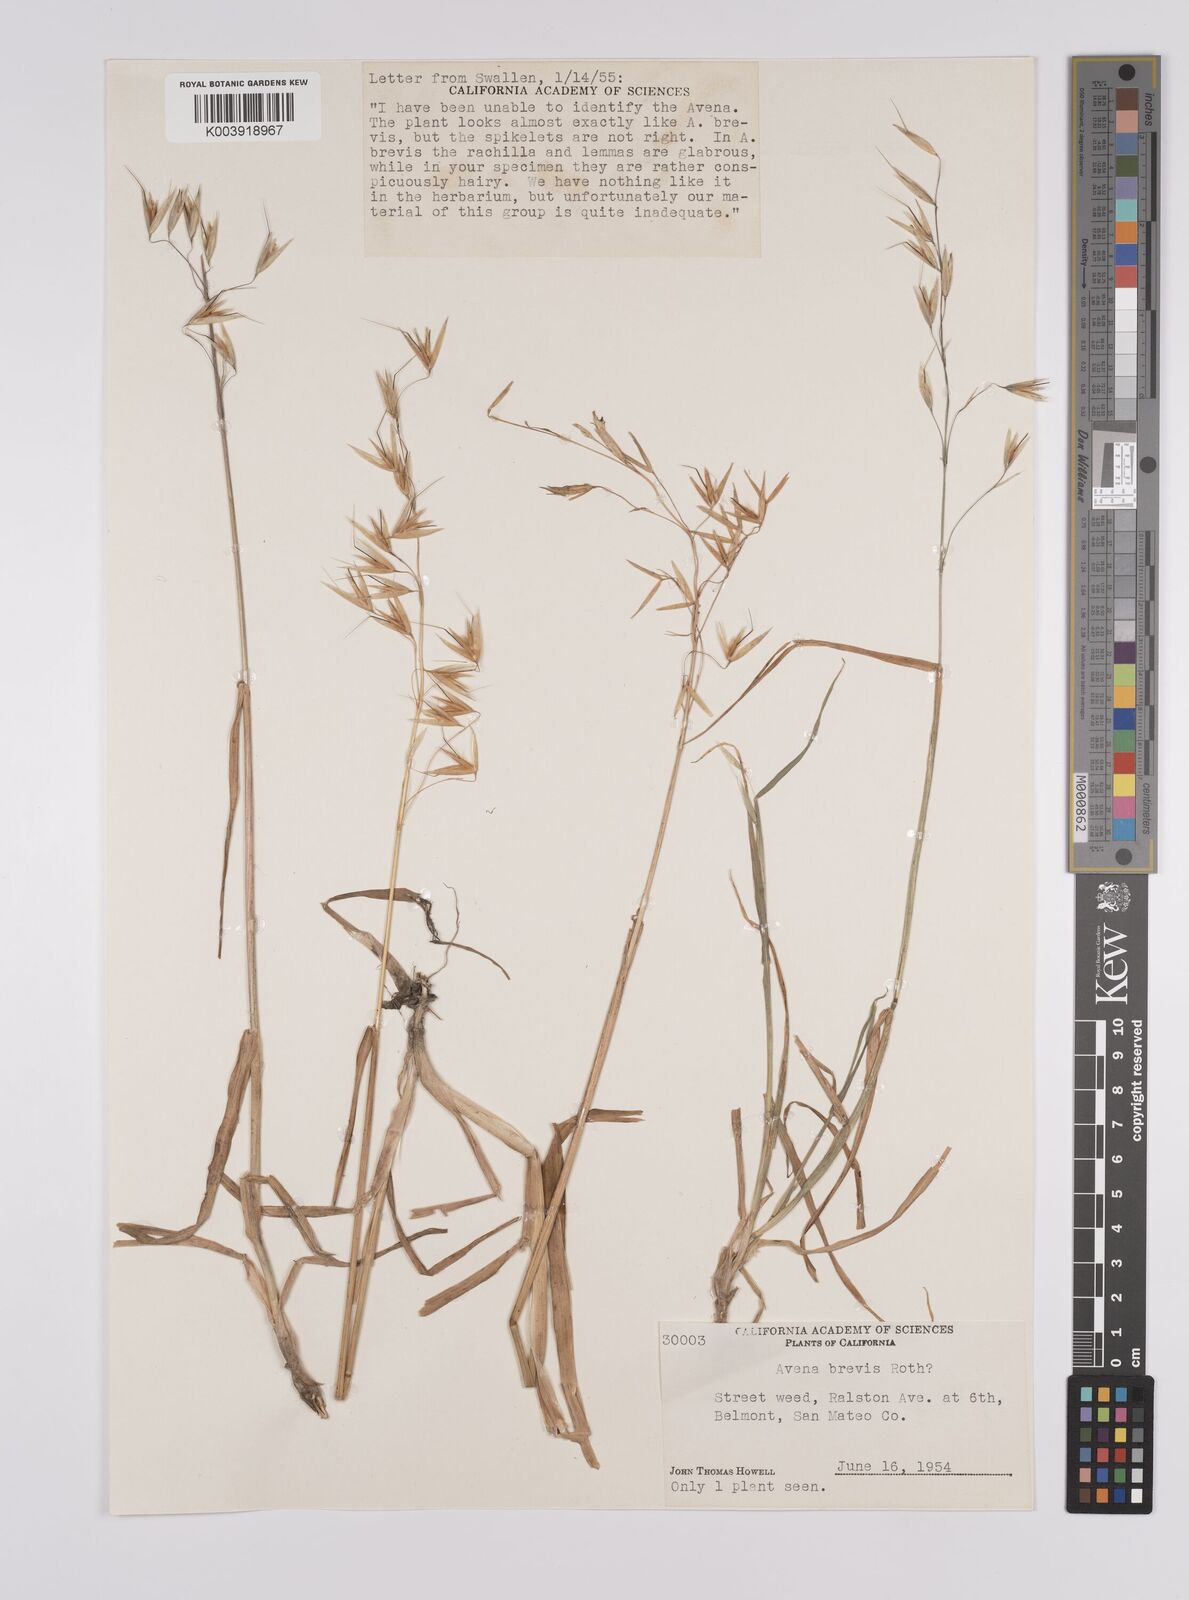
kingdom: Plantae
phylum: Tracheophyta
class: Liliopsida
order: Poales
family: Poaceae
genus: Avena
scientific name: Avena
